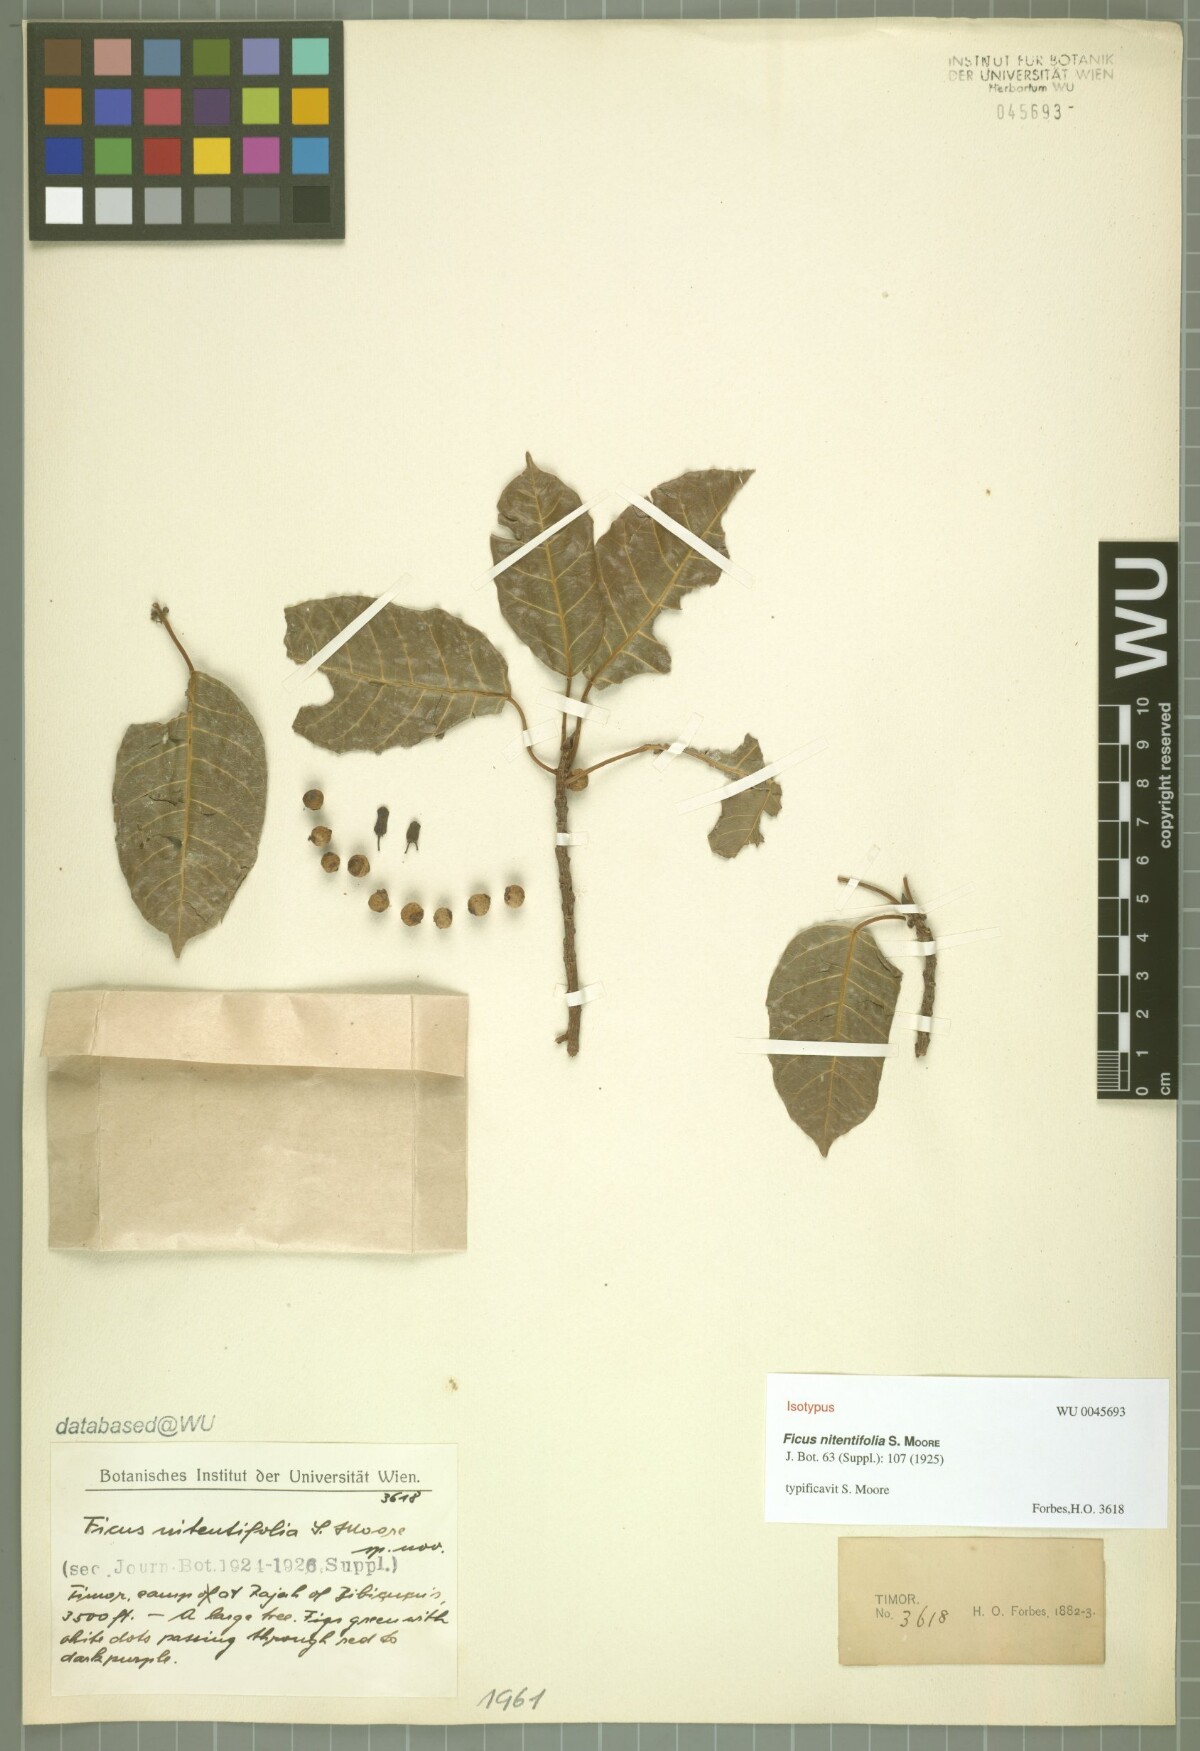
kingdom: Plantae
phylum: Tracheophyta
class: Magnoliopsida
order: Rosales
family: Moraceae
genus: Ficus
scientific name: Ficus virens
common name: Spotted fig
